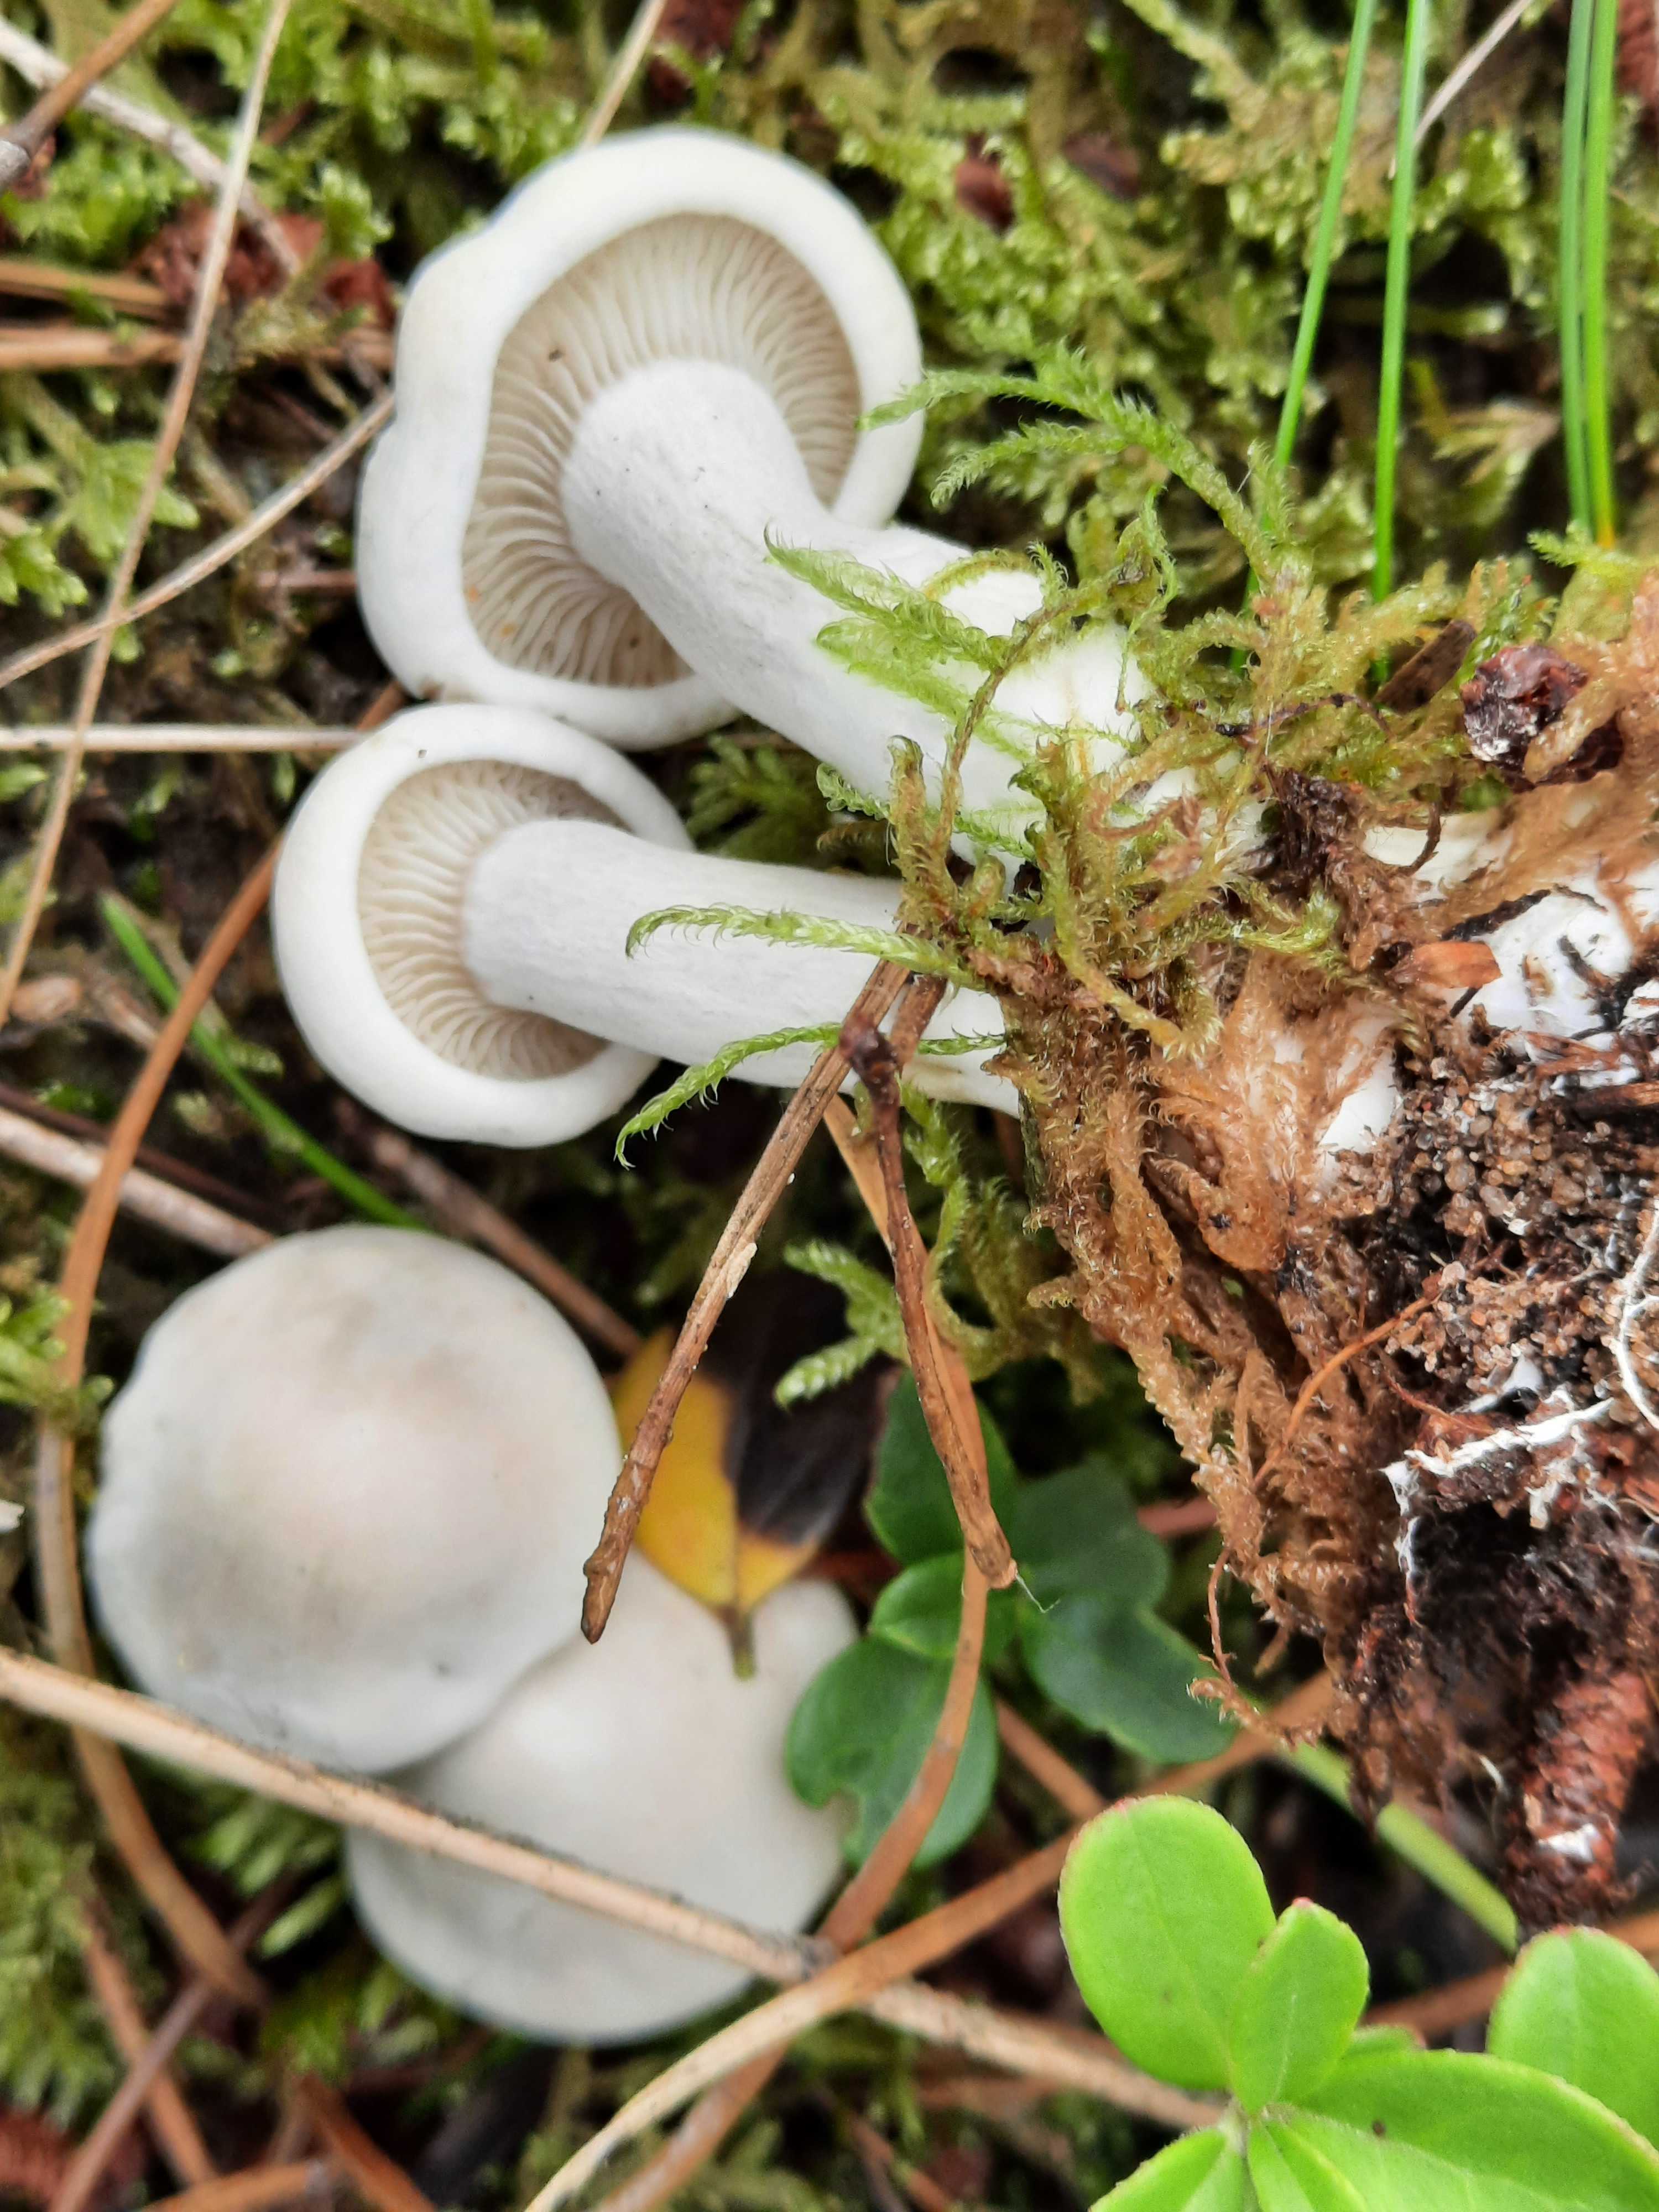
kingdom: Fungi
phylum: Basidiomycota
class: Agaricomycetes
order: Agaricales
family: Entolomataceae
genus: Clitopilus
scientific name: Clitopilus prunulus
